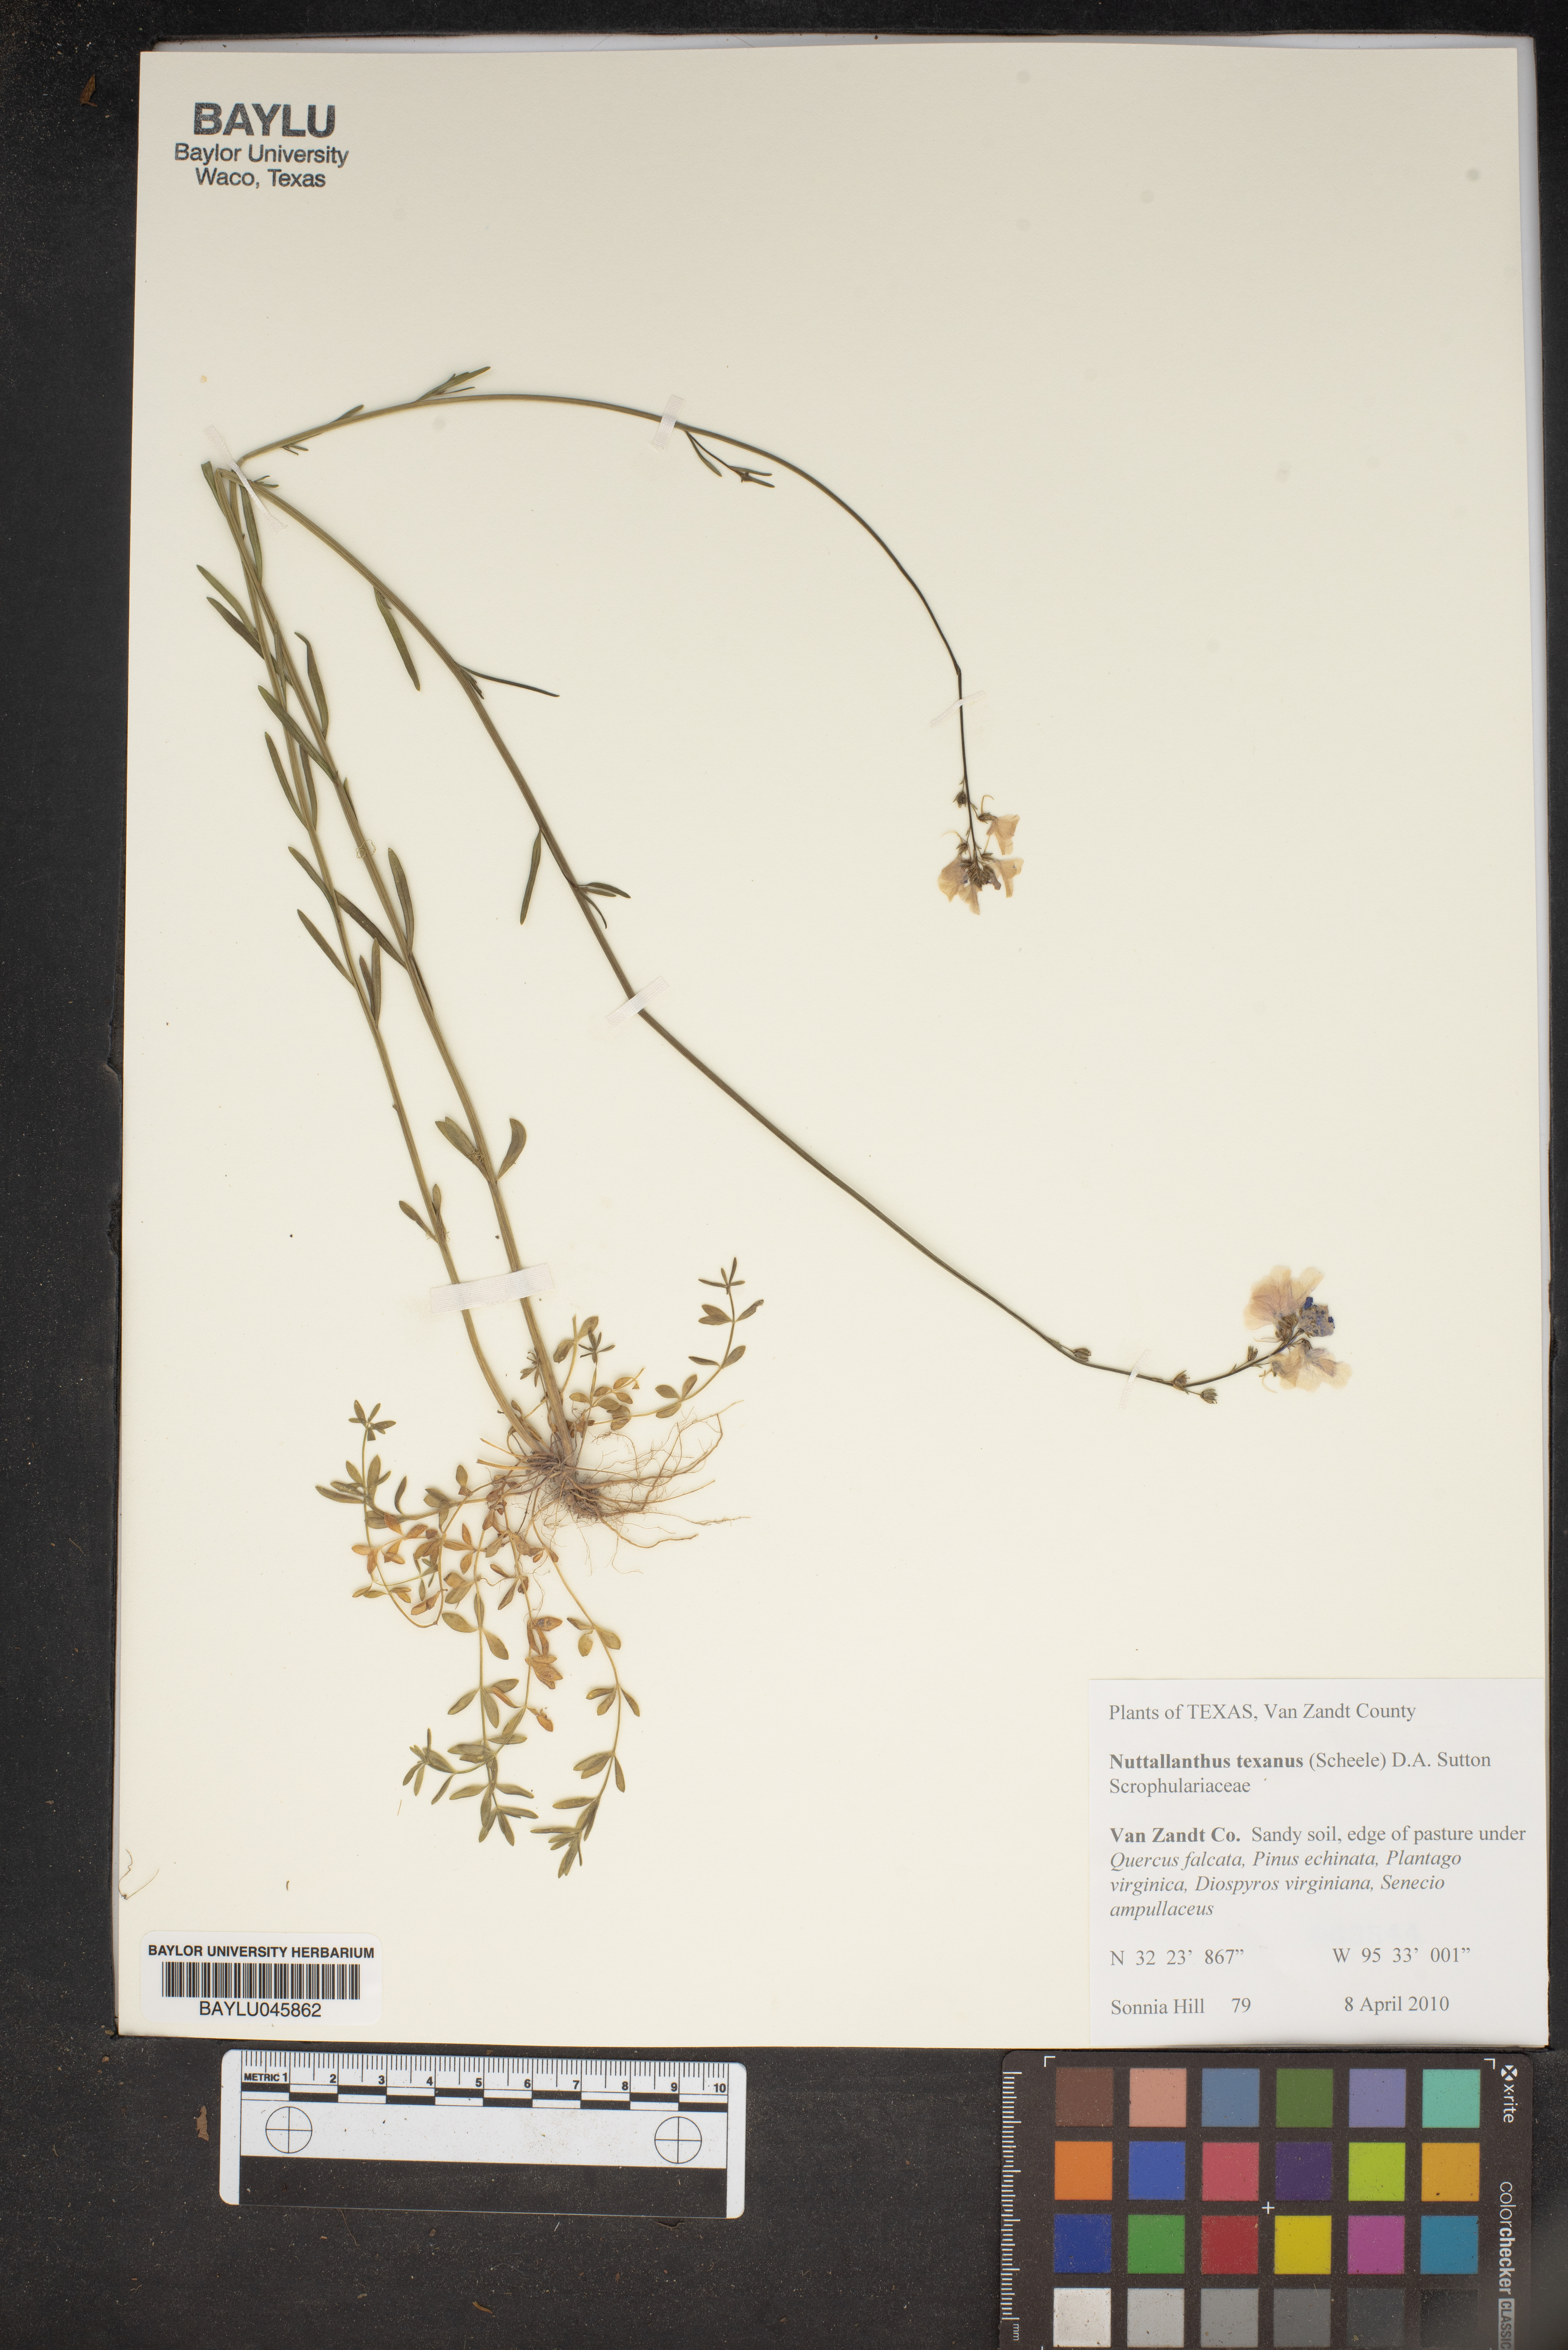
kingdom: Plantae
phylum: Tracheophyta
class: Magnoliopsida
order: Lamiales
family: Plantaginaceae
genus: Nuttallanthus
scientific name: Nuttallanthus texanus
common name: Texas toadflax
